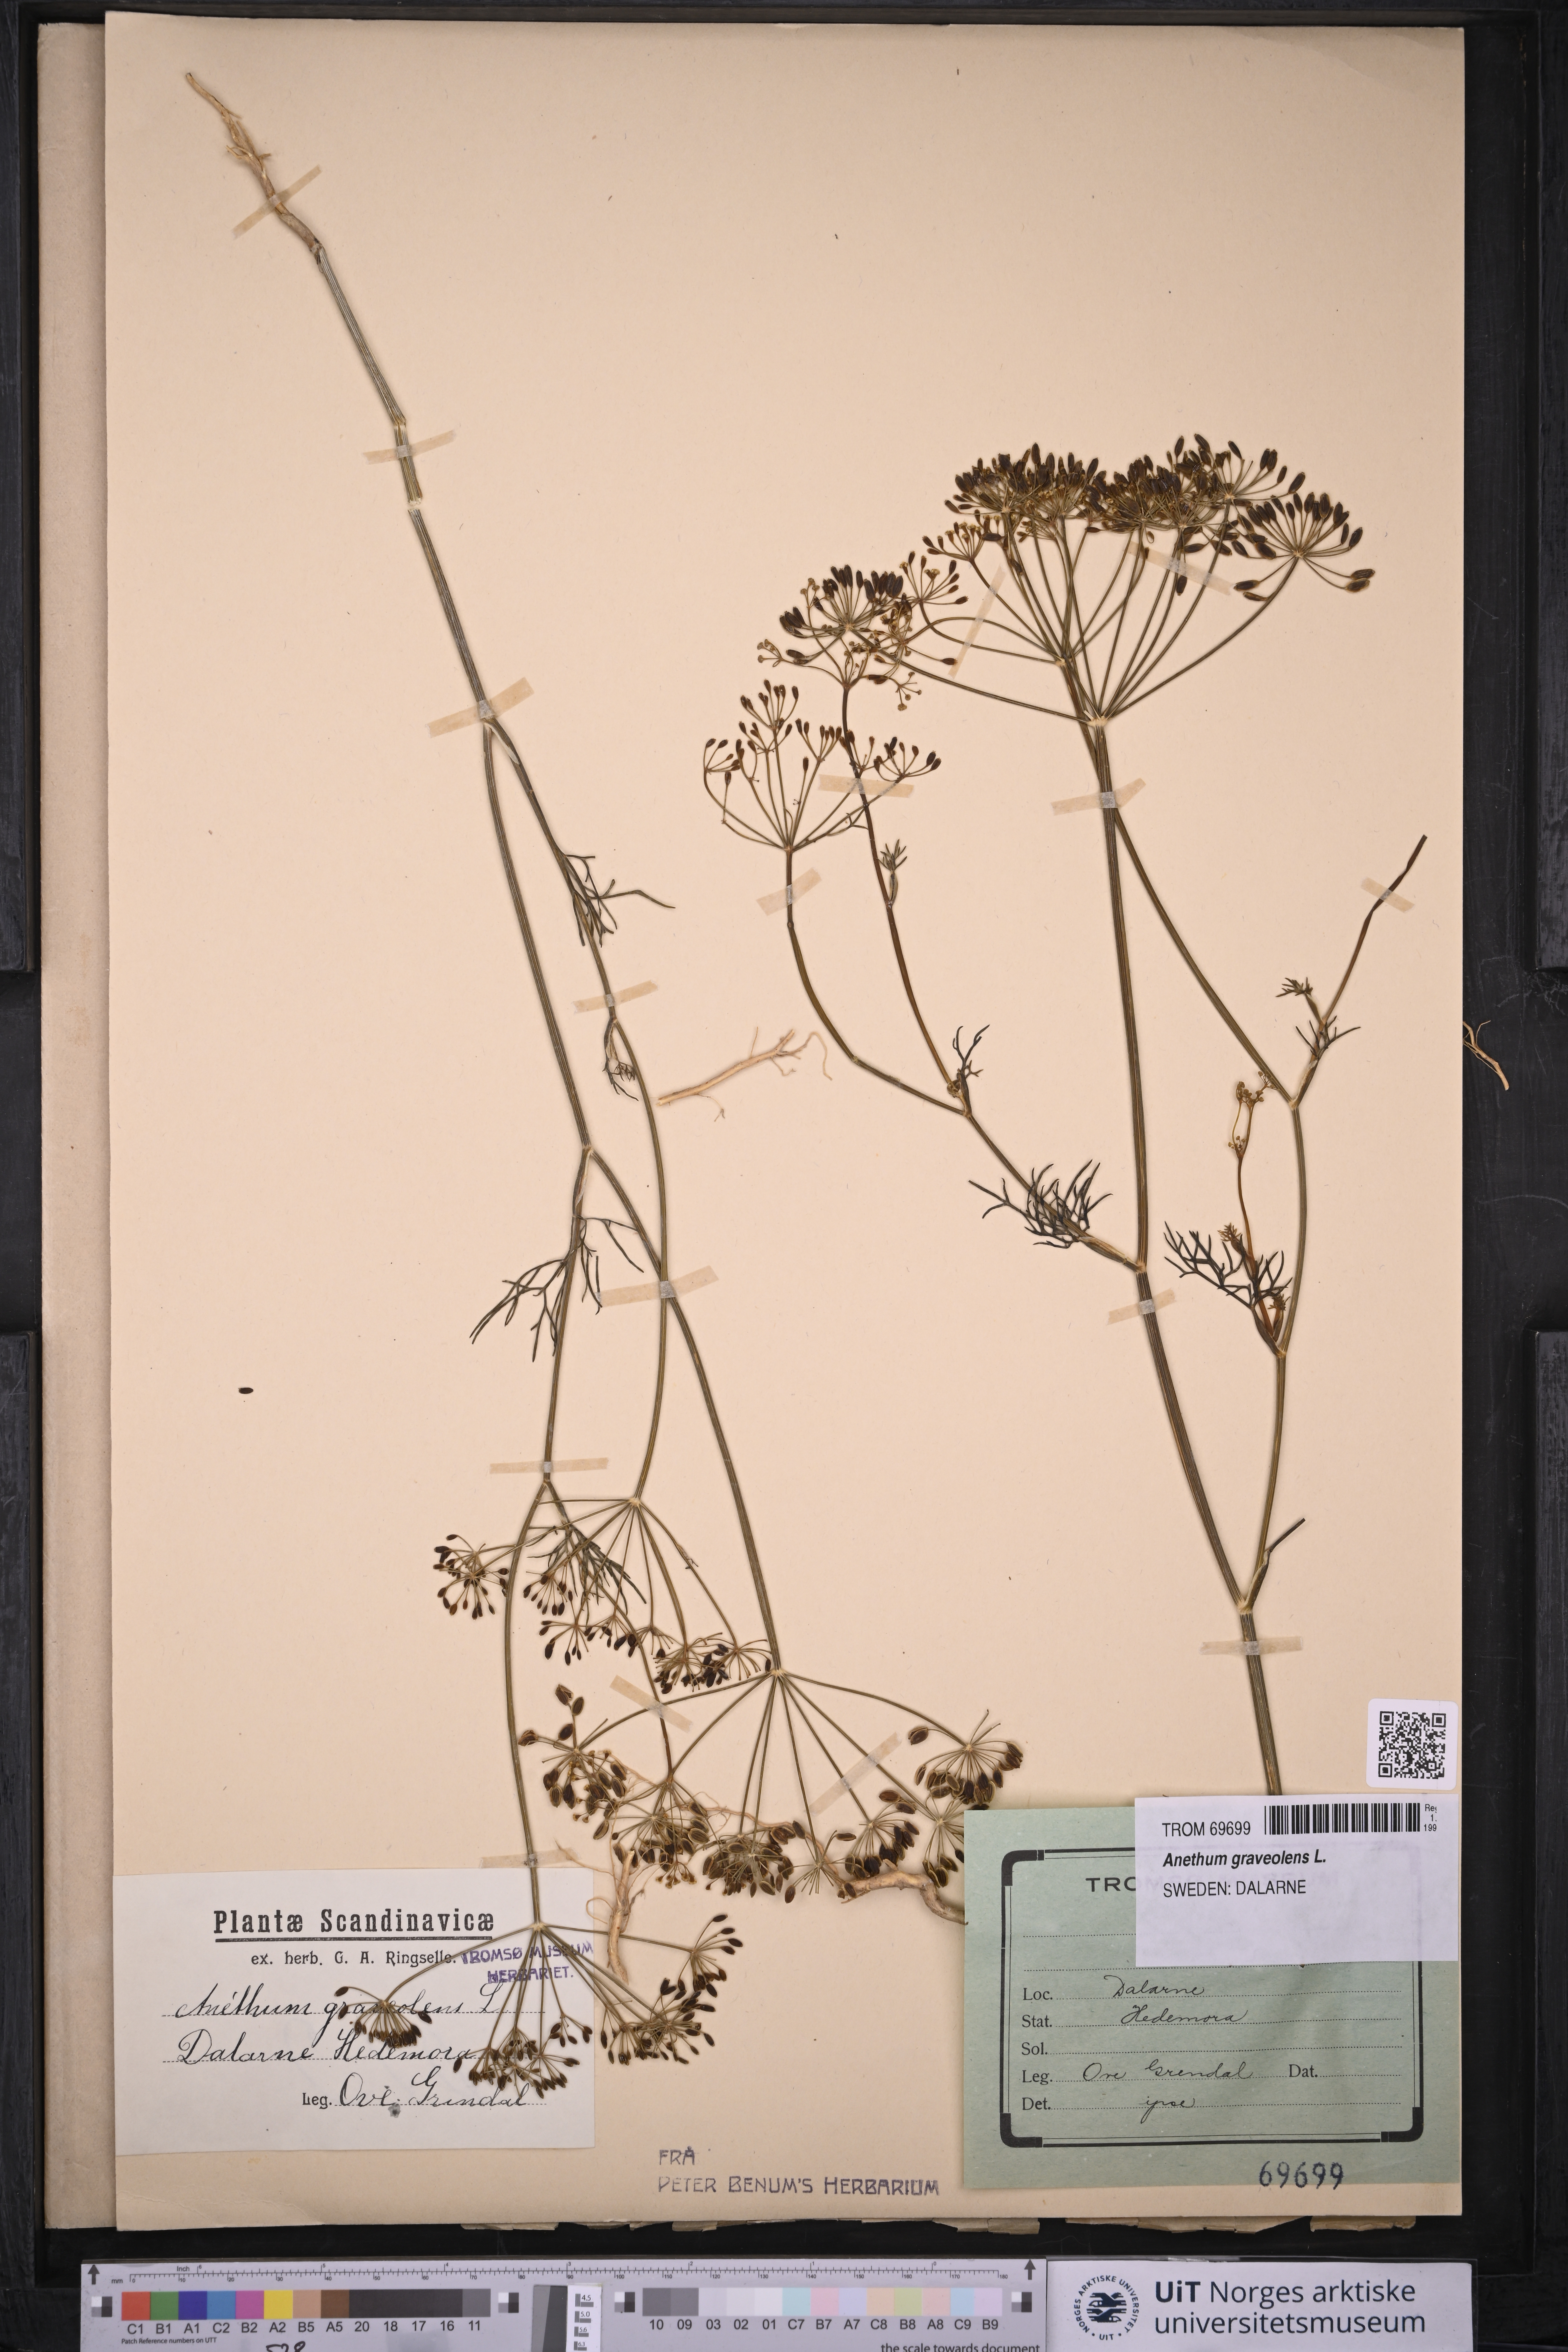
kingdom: Plantae
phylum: Tracheophyta
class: Magnoliopsida
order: Apiales
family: Apiaceae
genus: Anethum
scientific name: Anethum graveolens
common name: Dill
